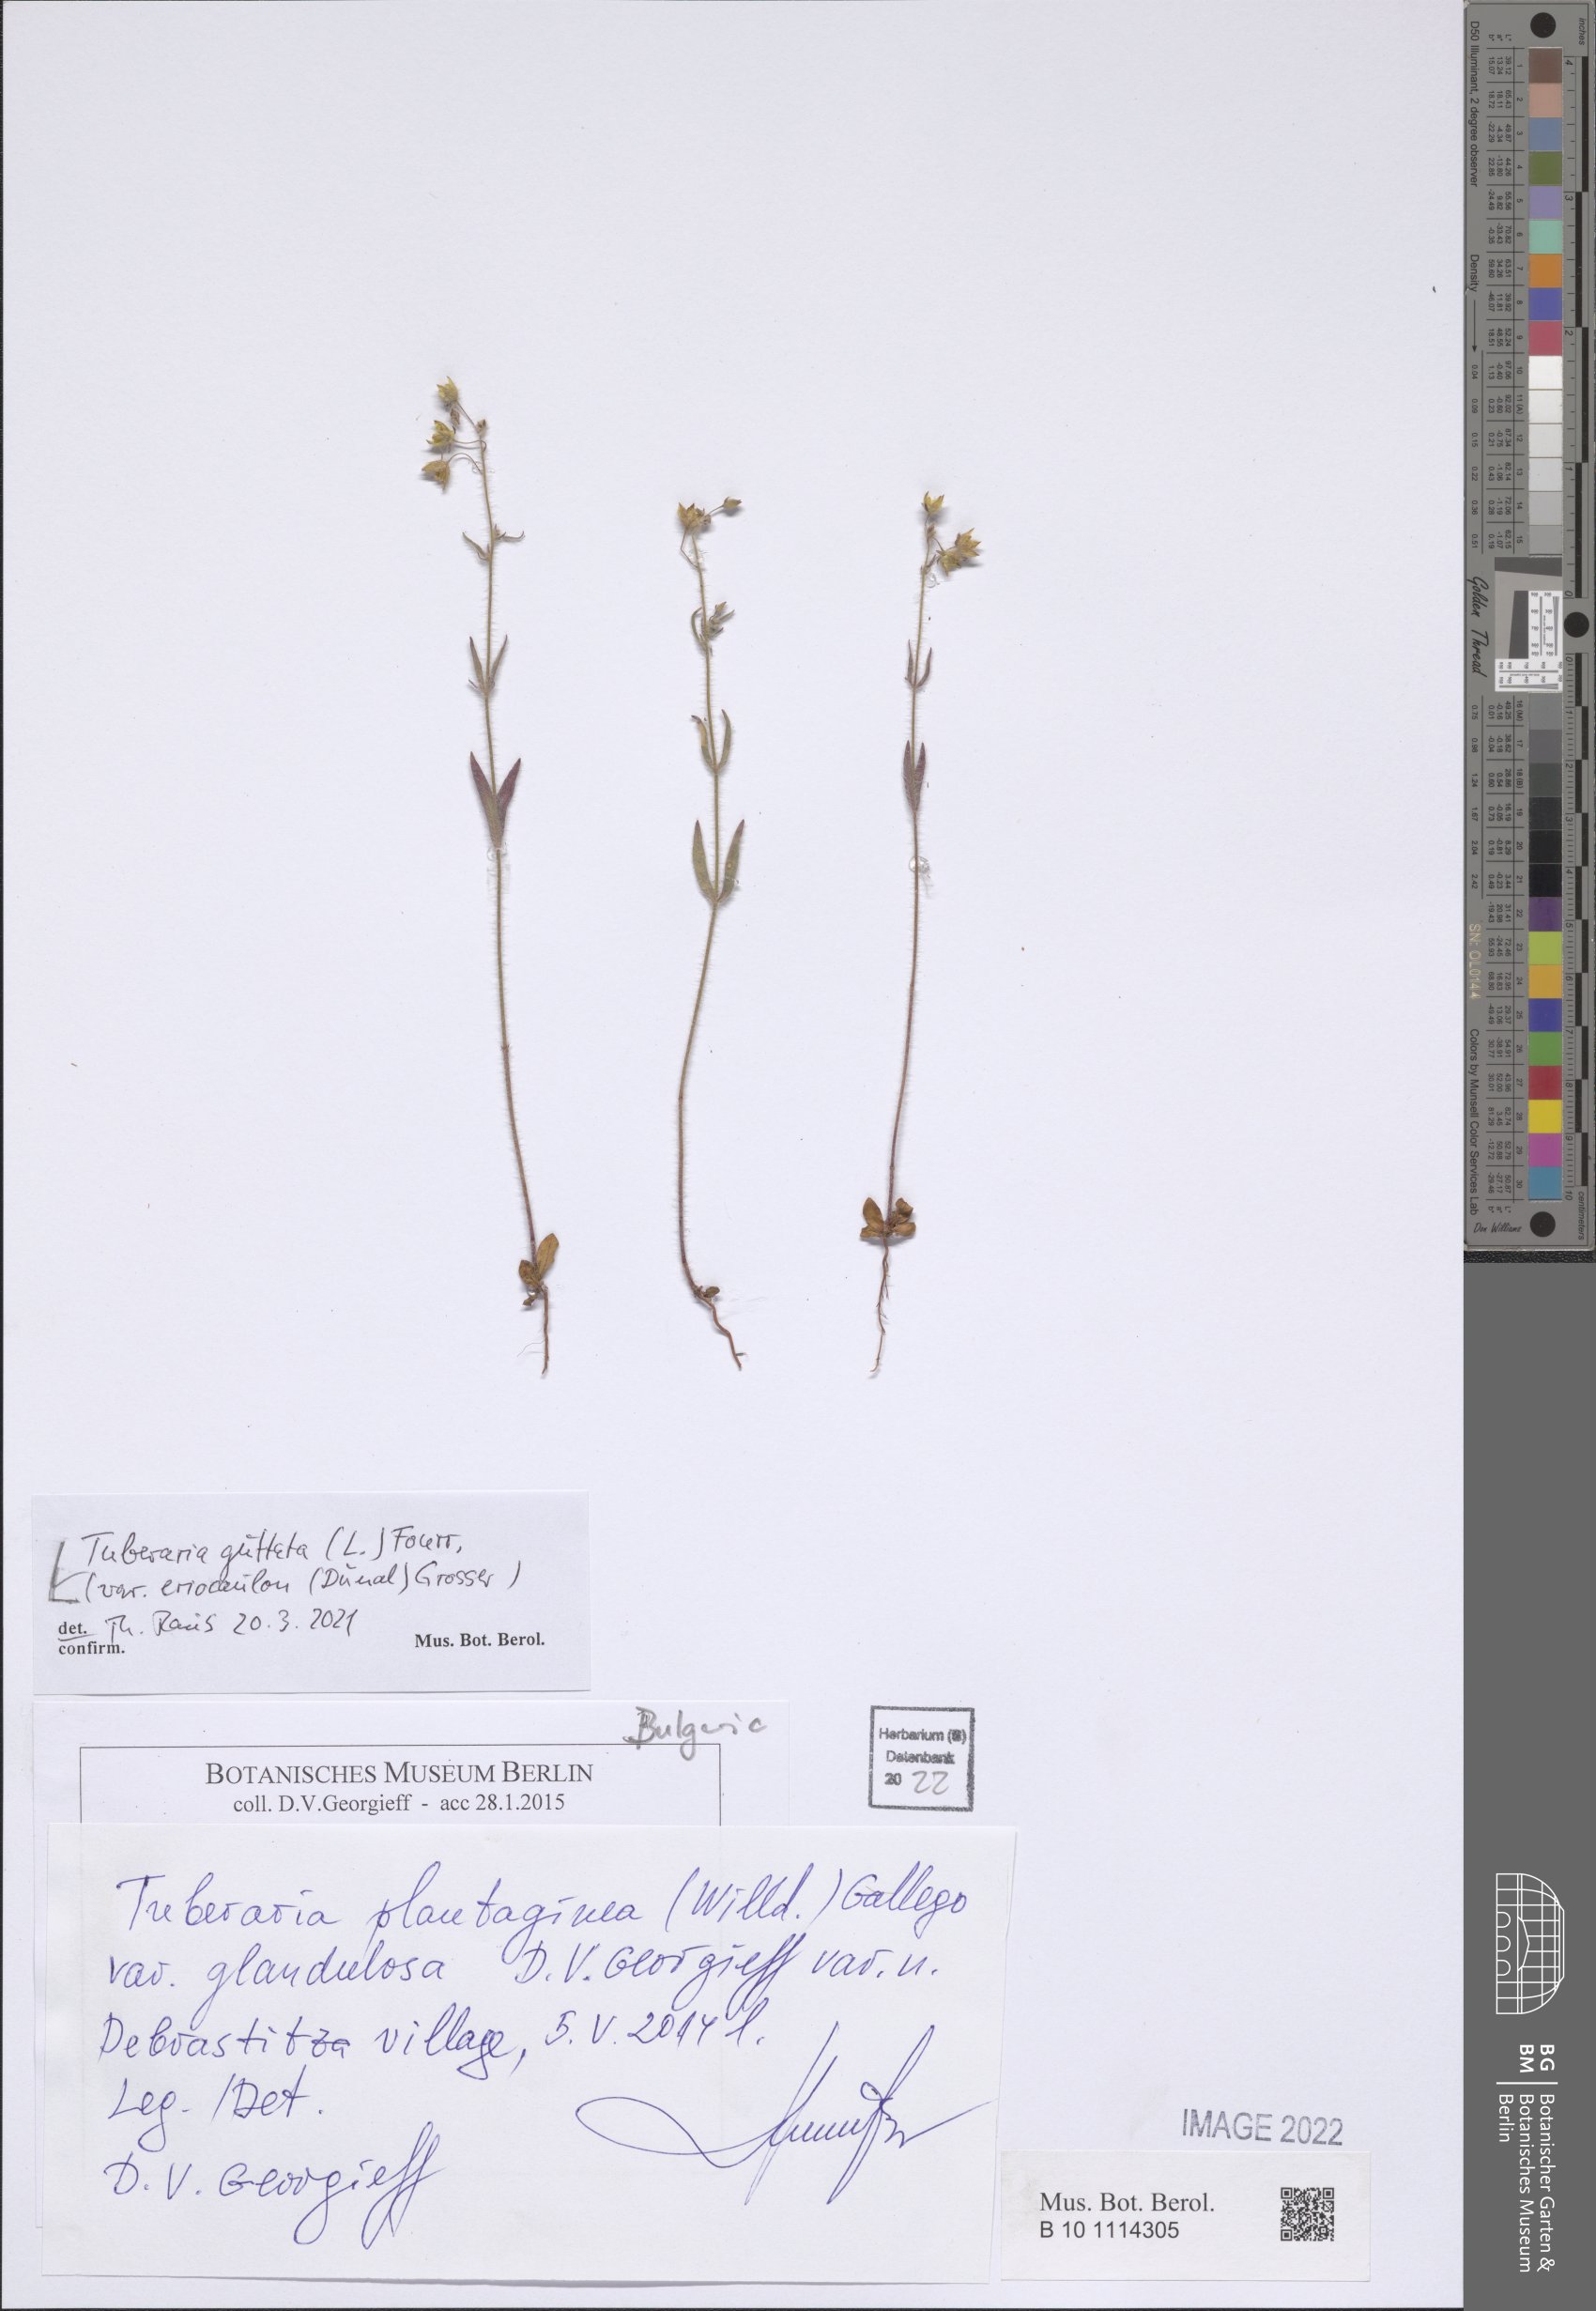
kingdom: Plantae
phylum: Tracheophyta
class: Magnoliopsida
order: Malvales
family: Cistaceae
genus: Tuberaria
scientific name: Tuberaria guttata
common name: Spotted rock-rose
